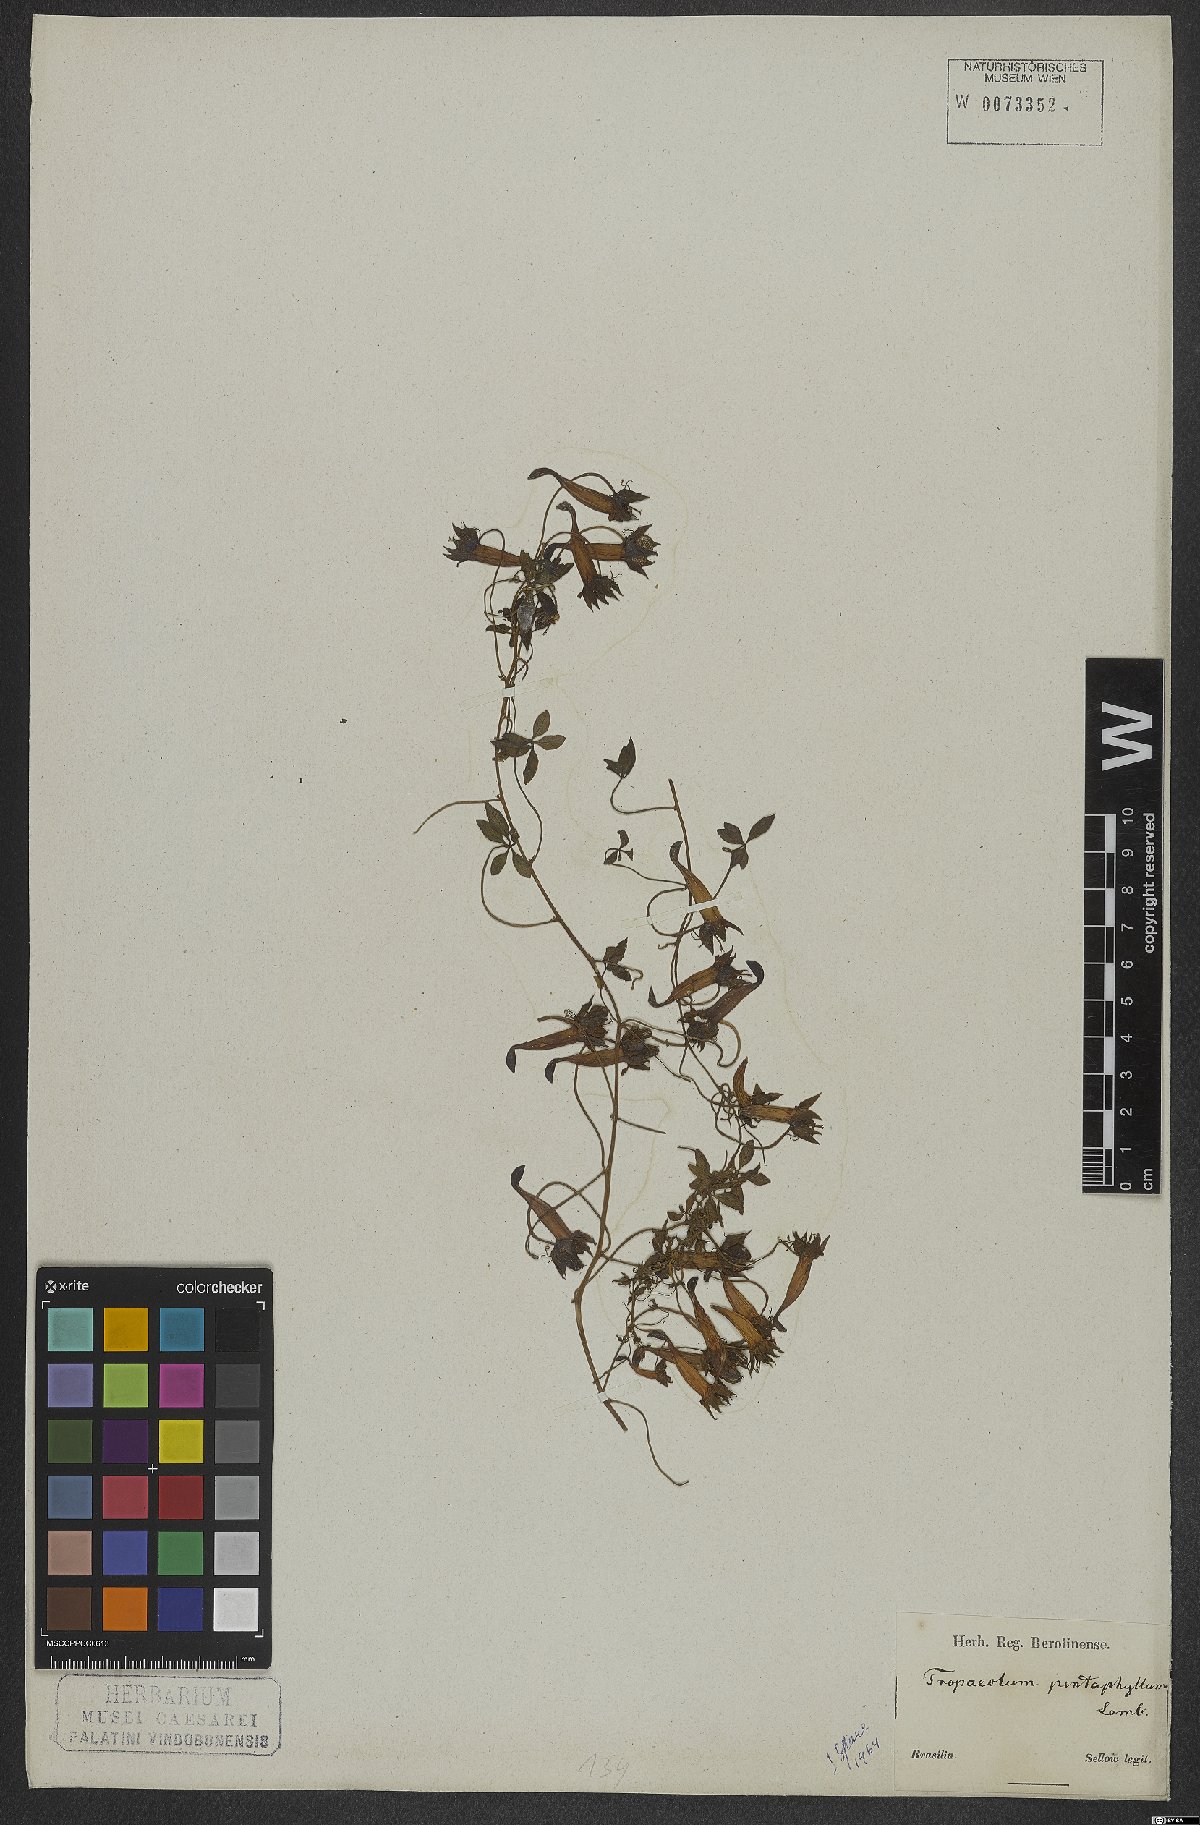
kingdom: Plantae
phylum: Tracheophyta
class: Magnoliopsida
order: Brassicales
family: Tropaeolaceae
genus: Tropaeolum
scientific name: Tropaeolum pentaphyllum
